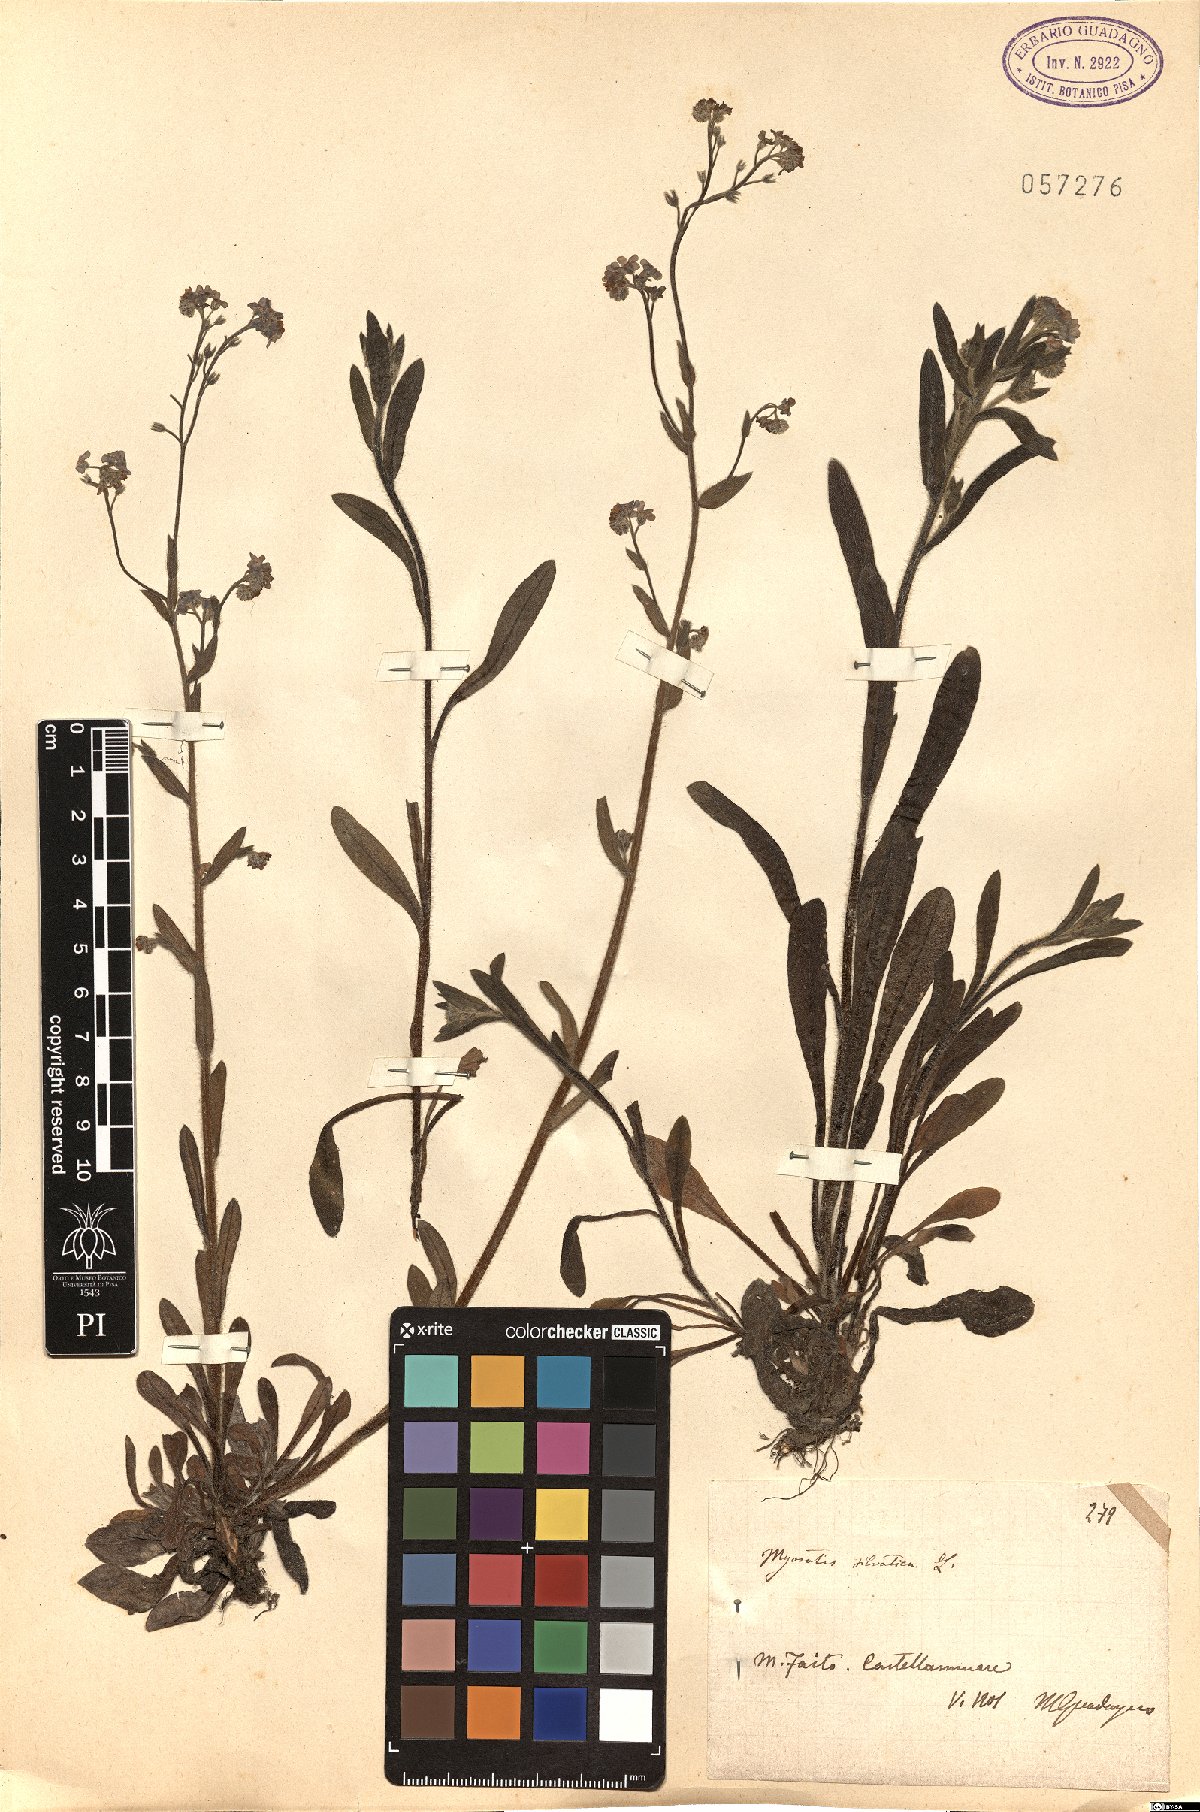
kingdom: Plantae
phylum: Tracheophyta
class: Magnoliopsida
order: Boraginales
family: Boraginaceae
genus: Myosotis
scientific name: Myosotis sylvatica
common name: Wood forget-me-not
